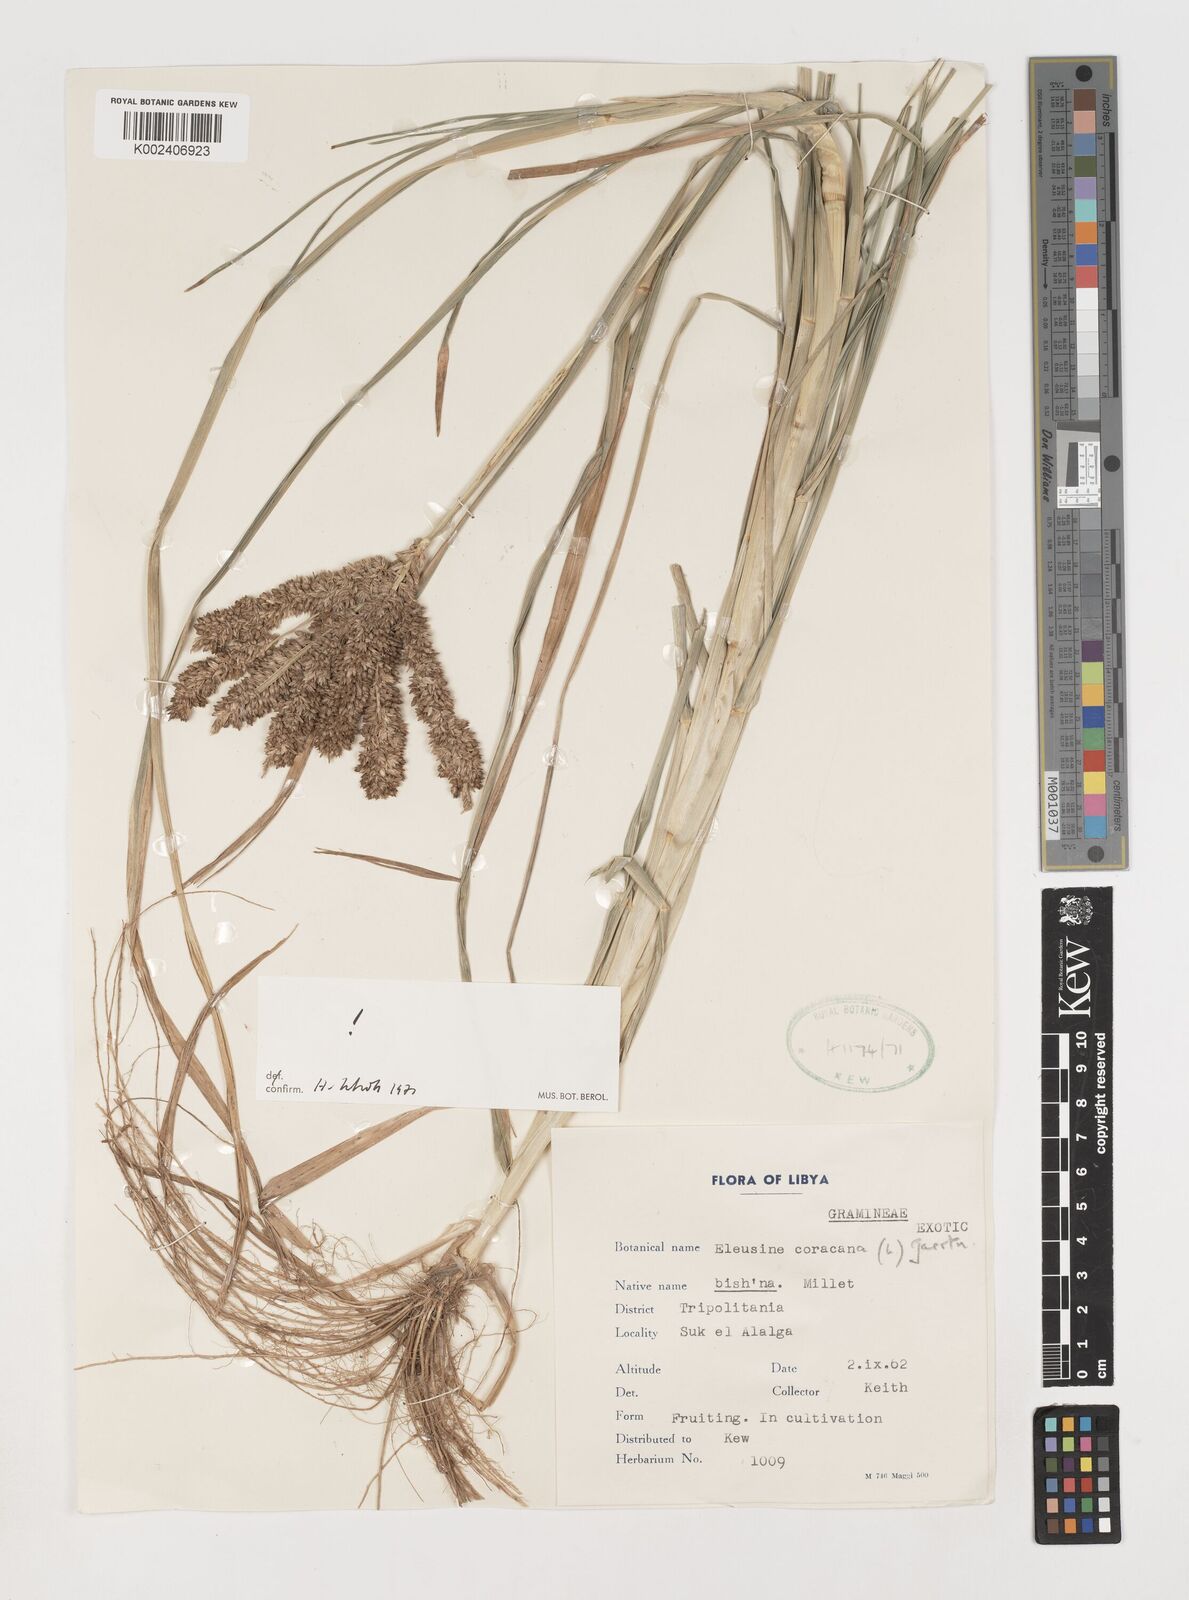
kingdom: Plantae
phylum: Tracheophyta
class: Liliopsida
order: Poales
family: Poaceae
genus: Eleusine
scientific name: Eleusine coracana
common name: Finger millet
